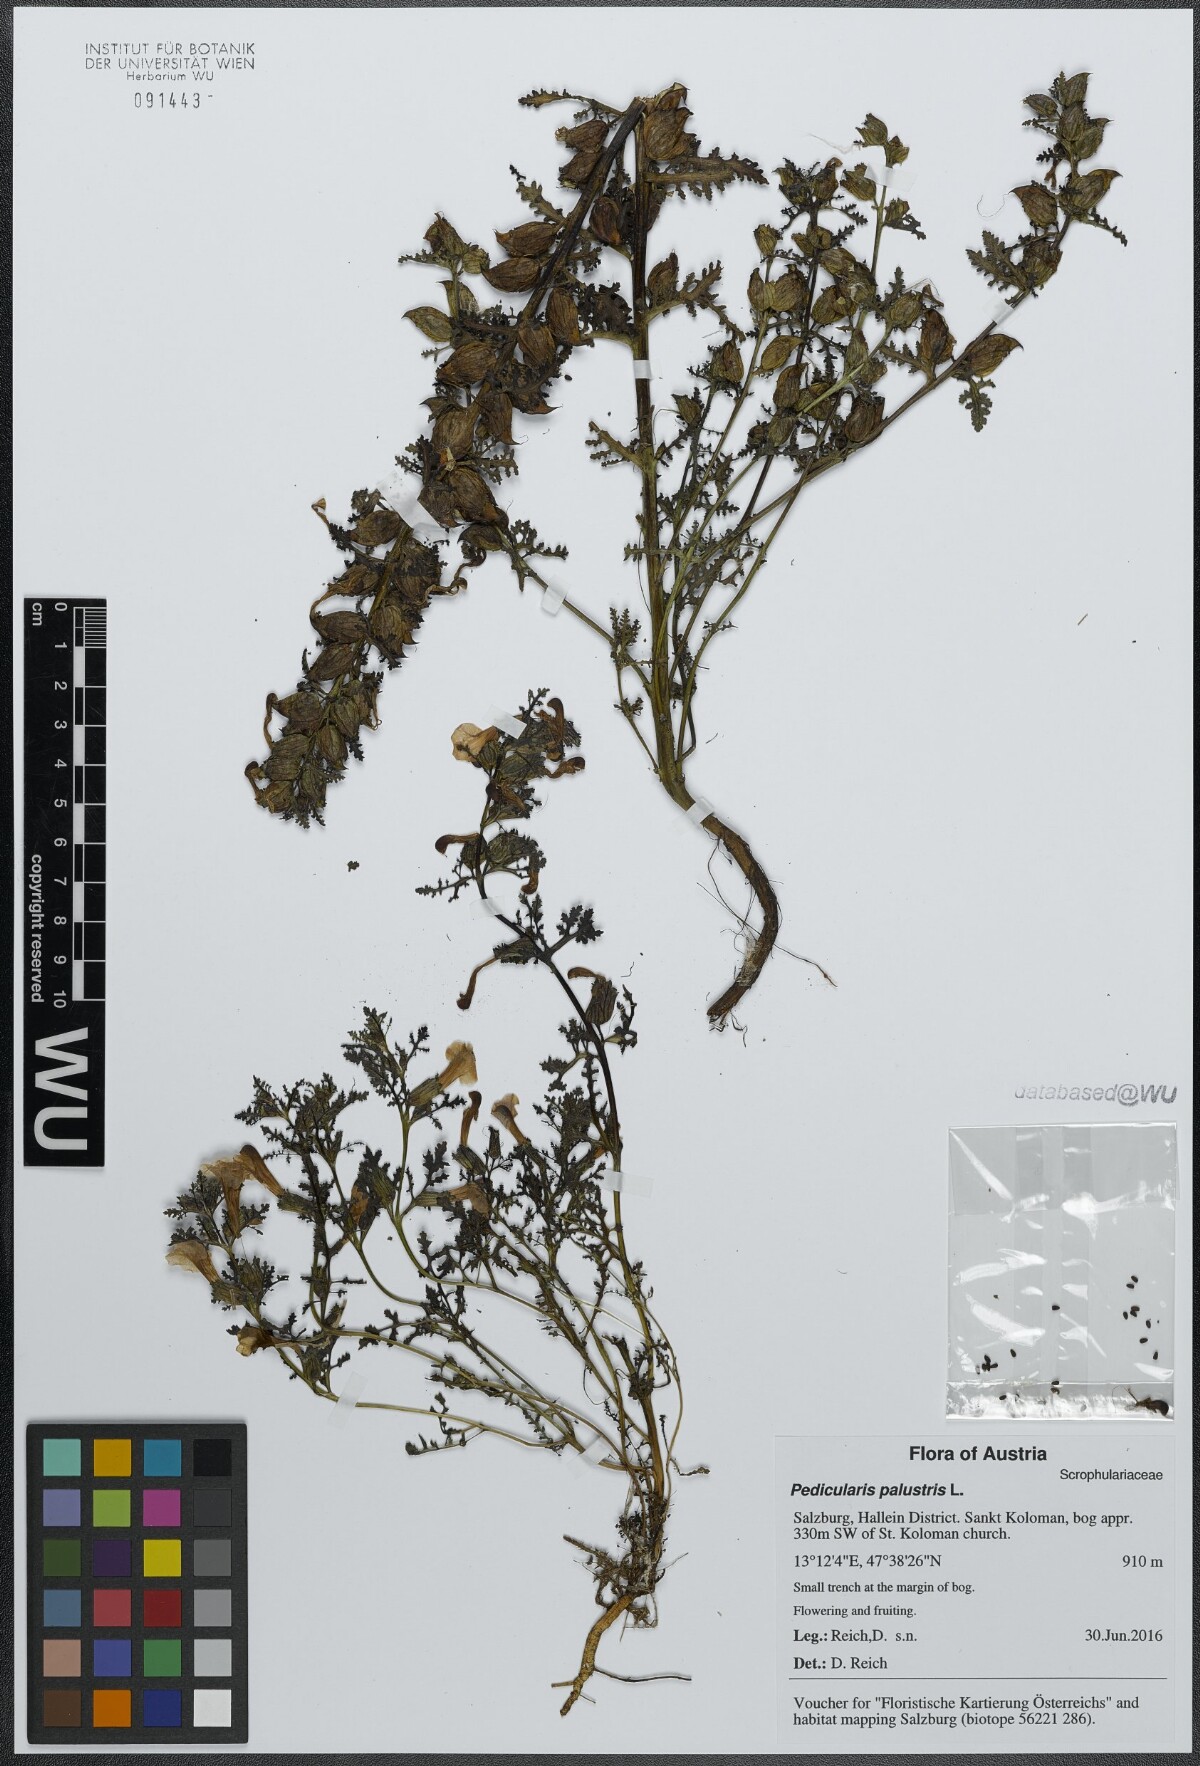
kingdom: Plantae
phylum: Tracheophyta
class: Magnoliopsida
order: Lamiales
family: Orobanchaceae
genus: Pedicularis
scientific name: Pedicularis palustris
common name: Marsh lousewort
